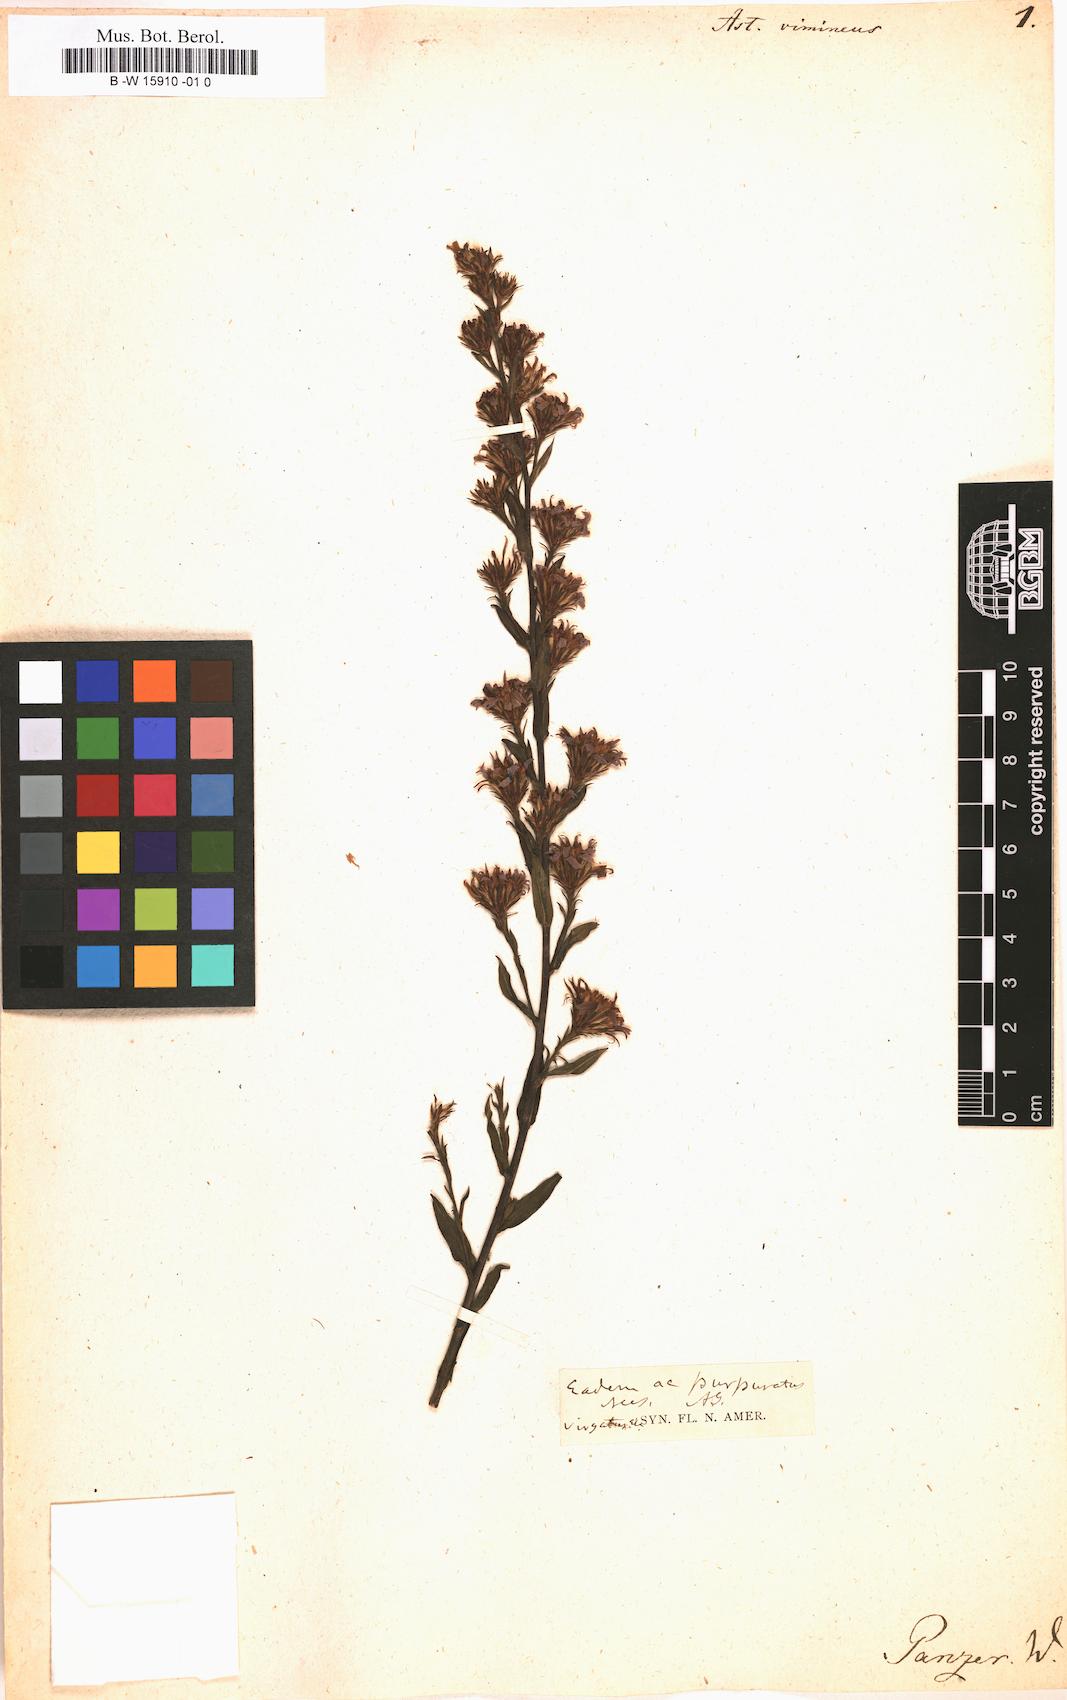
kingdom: Plantae
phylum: Tracheophyta
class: Magnoliopsida
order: Asterales
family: Asteraceae
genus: Symphyotrichum
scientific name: Symphyotrichum racemosum
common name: Small white aster
